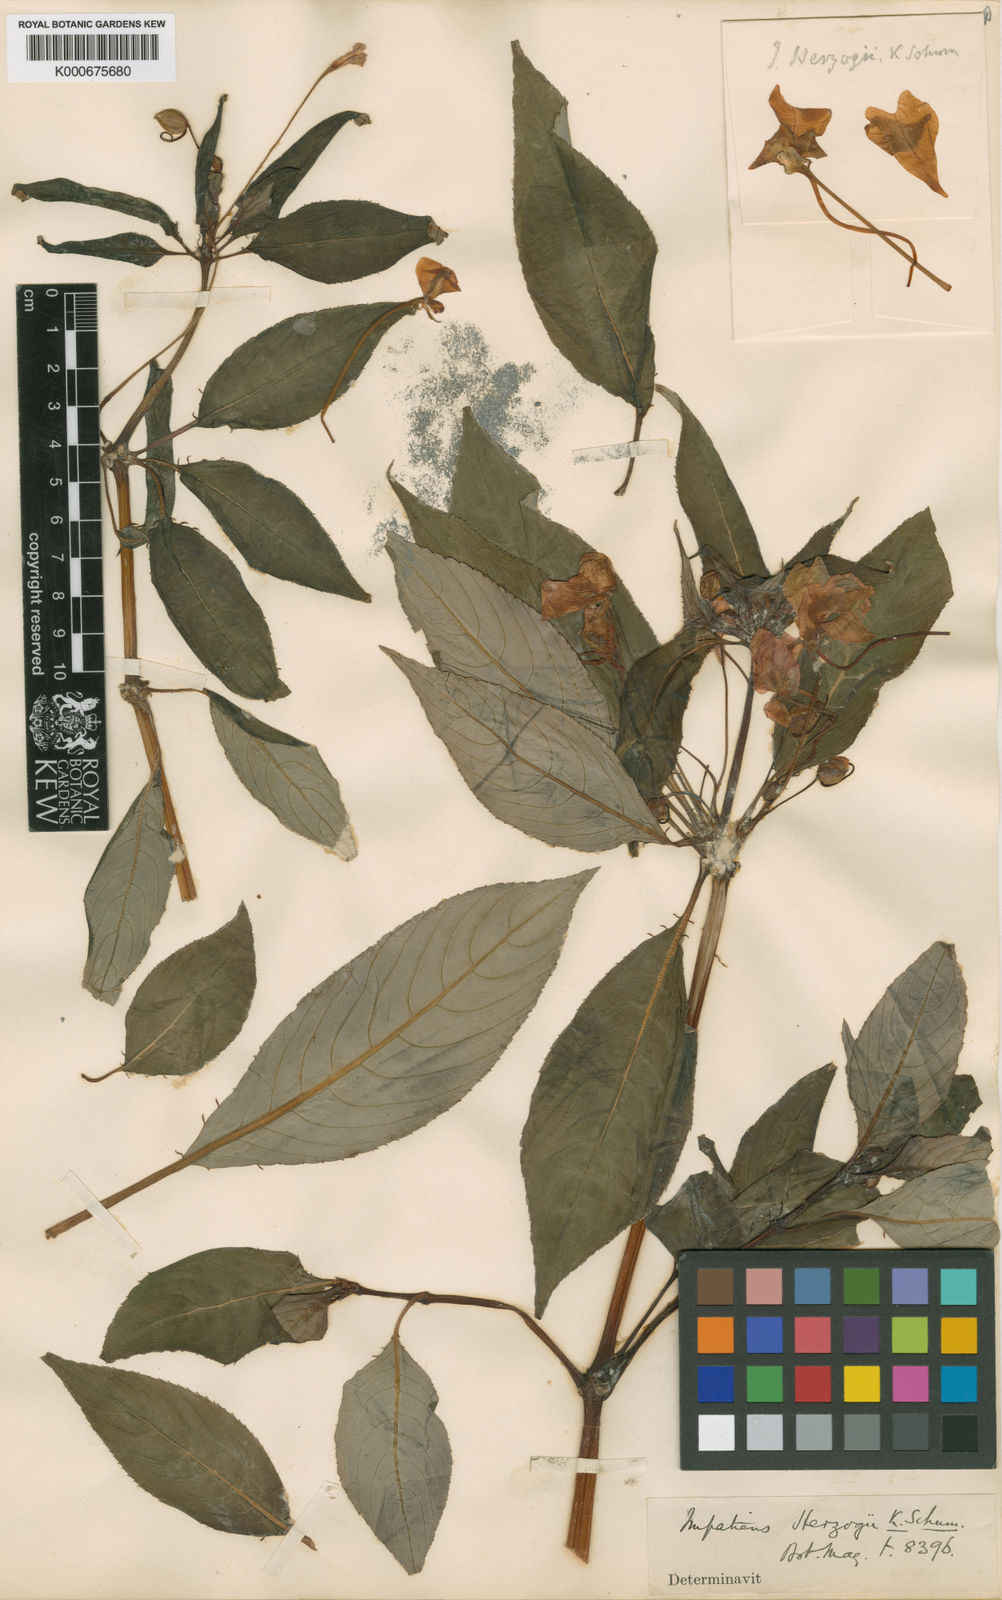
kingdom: Plantae
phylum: Tracheophyta
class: Magnoliopsida
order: Ericales
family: Balsaminaceae
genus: Impatiens
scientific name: Impatiens hawkeri
